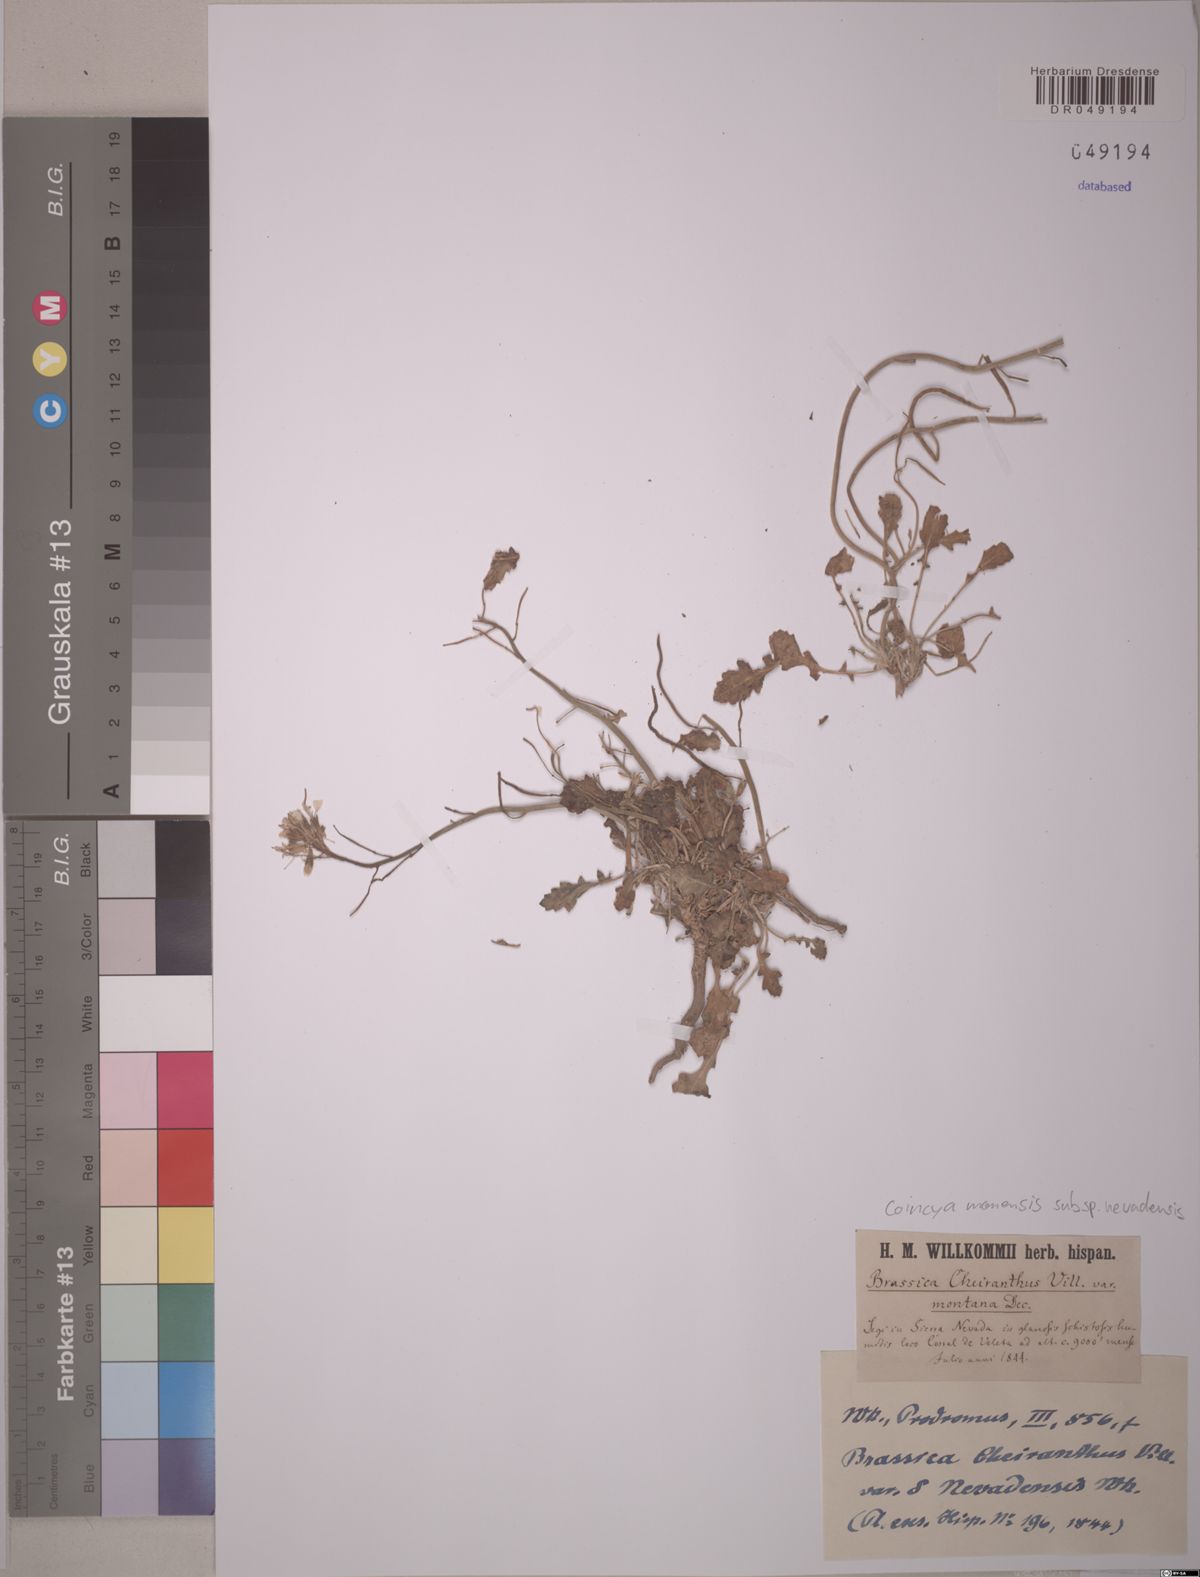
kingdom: Plantae
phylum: Tracheophyta
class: Magnoliopsida
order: Brassicales
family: Brassicaceae
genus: Coincya
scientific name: Coincya monensis
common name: Star-mustard
